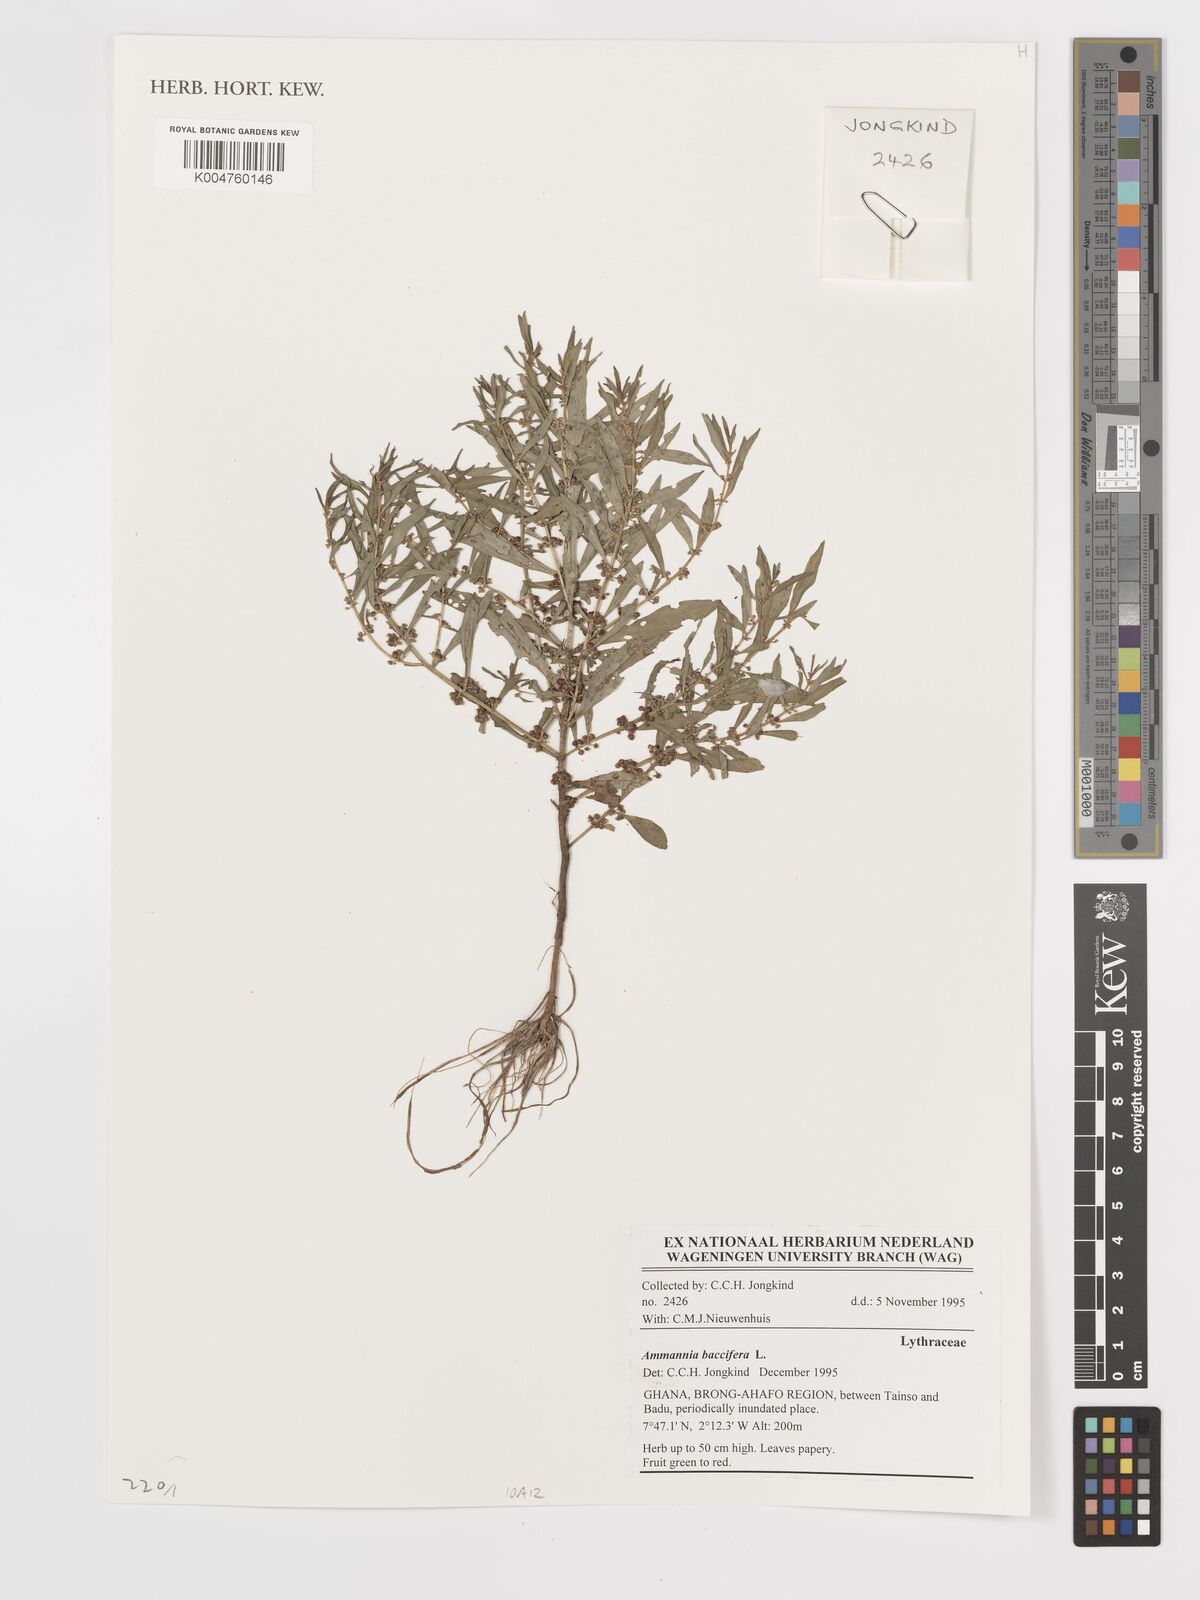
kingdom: Plantae
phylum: Tracheophyta
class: Magnoliopsida
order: Myrtales
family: Lythraceae
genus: Ammannia
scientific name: Ammannia
